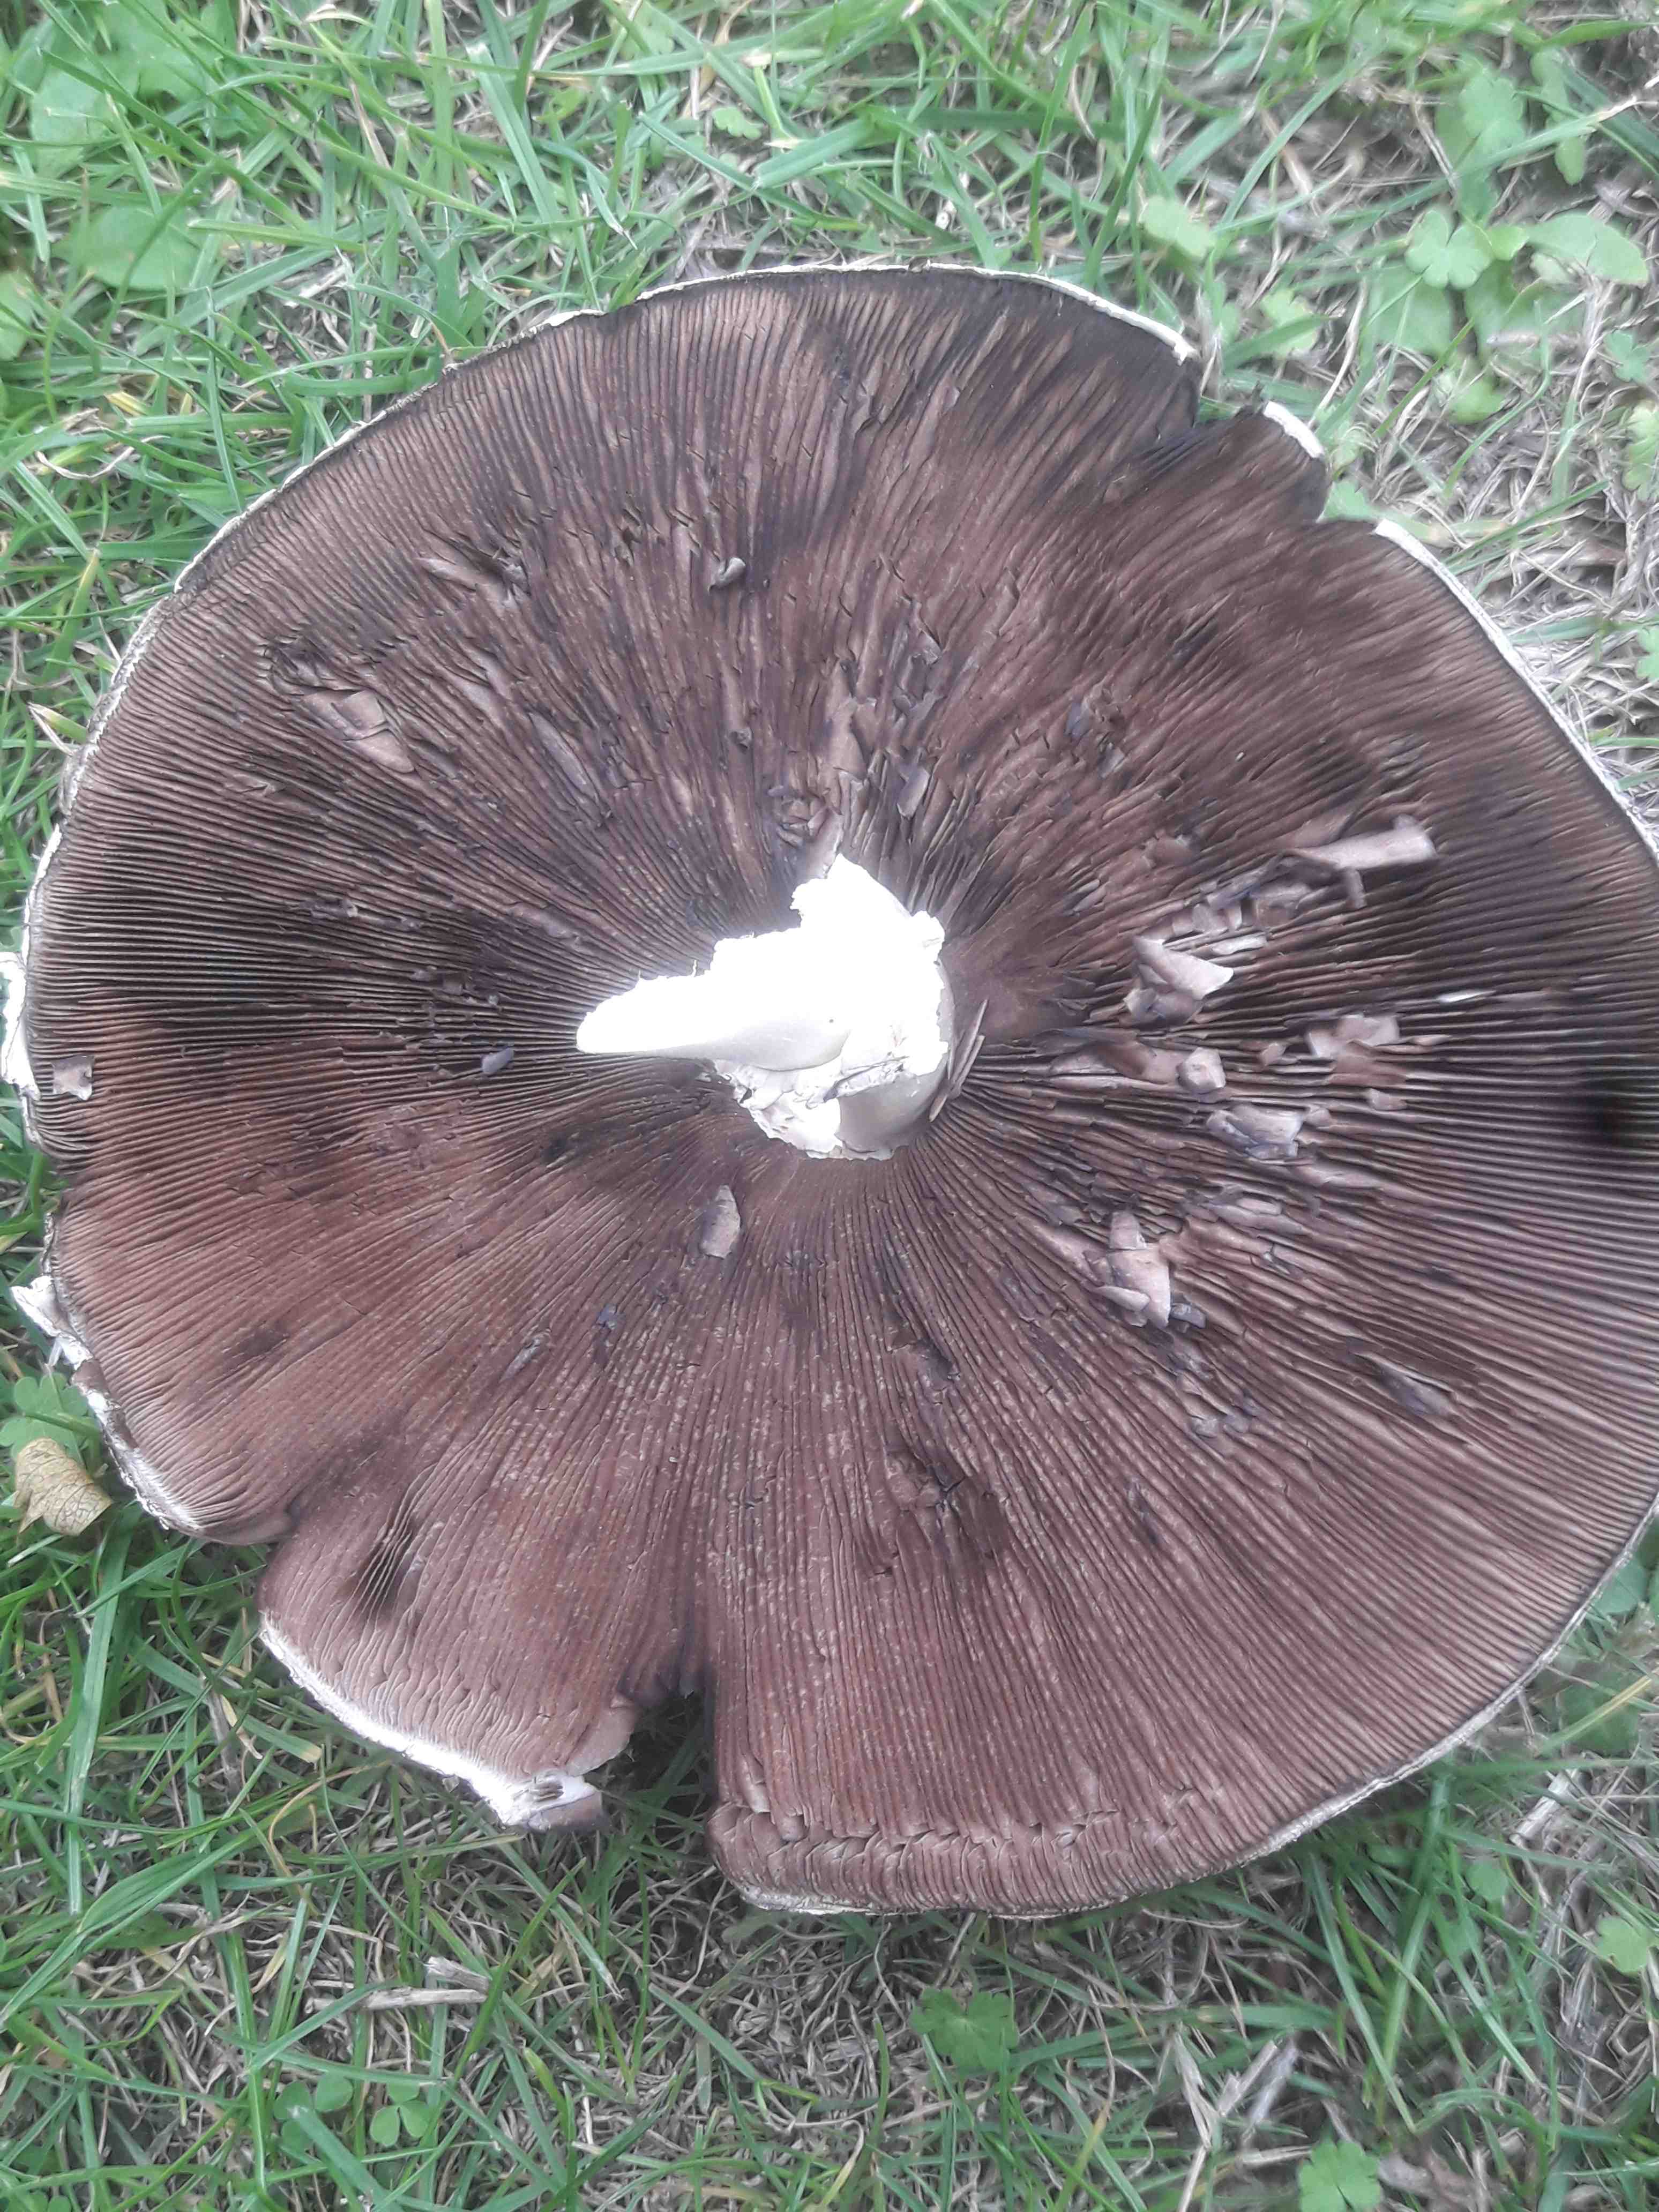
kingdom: Fungi
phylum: Basidiomycota
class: Agaricomycetes
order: Agaricales
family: Agaricaceae
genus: Agaricus
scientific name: Agaricus
